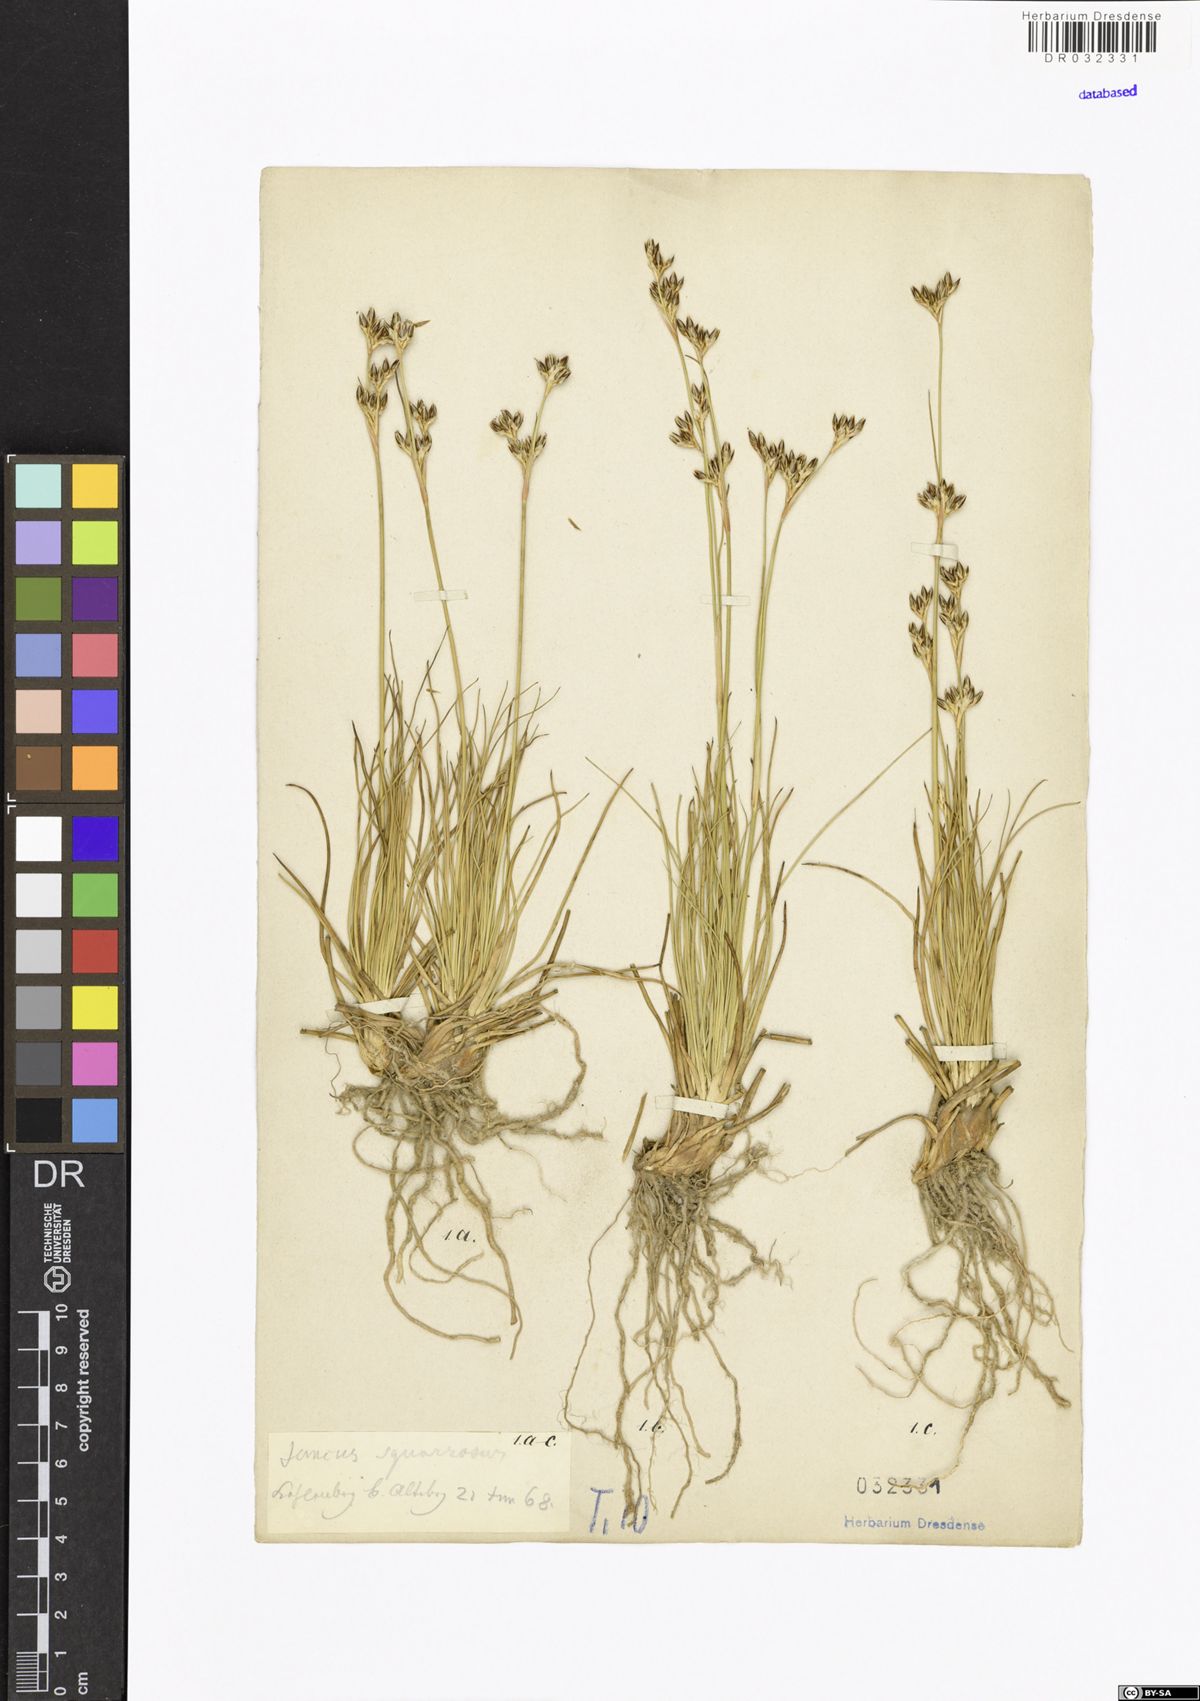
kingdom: Plantae
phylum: Tracheophyta
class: Liliopsida
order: Poales
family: Juncaceae
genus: Juncus
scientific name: Juncus squarrosus
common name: Heath rush
